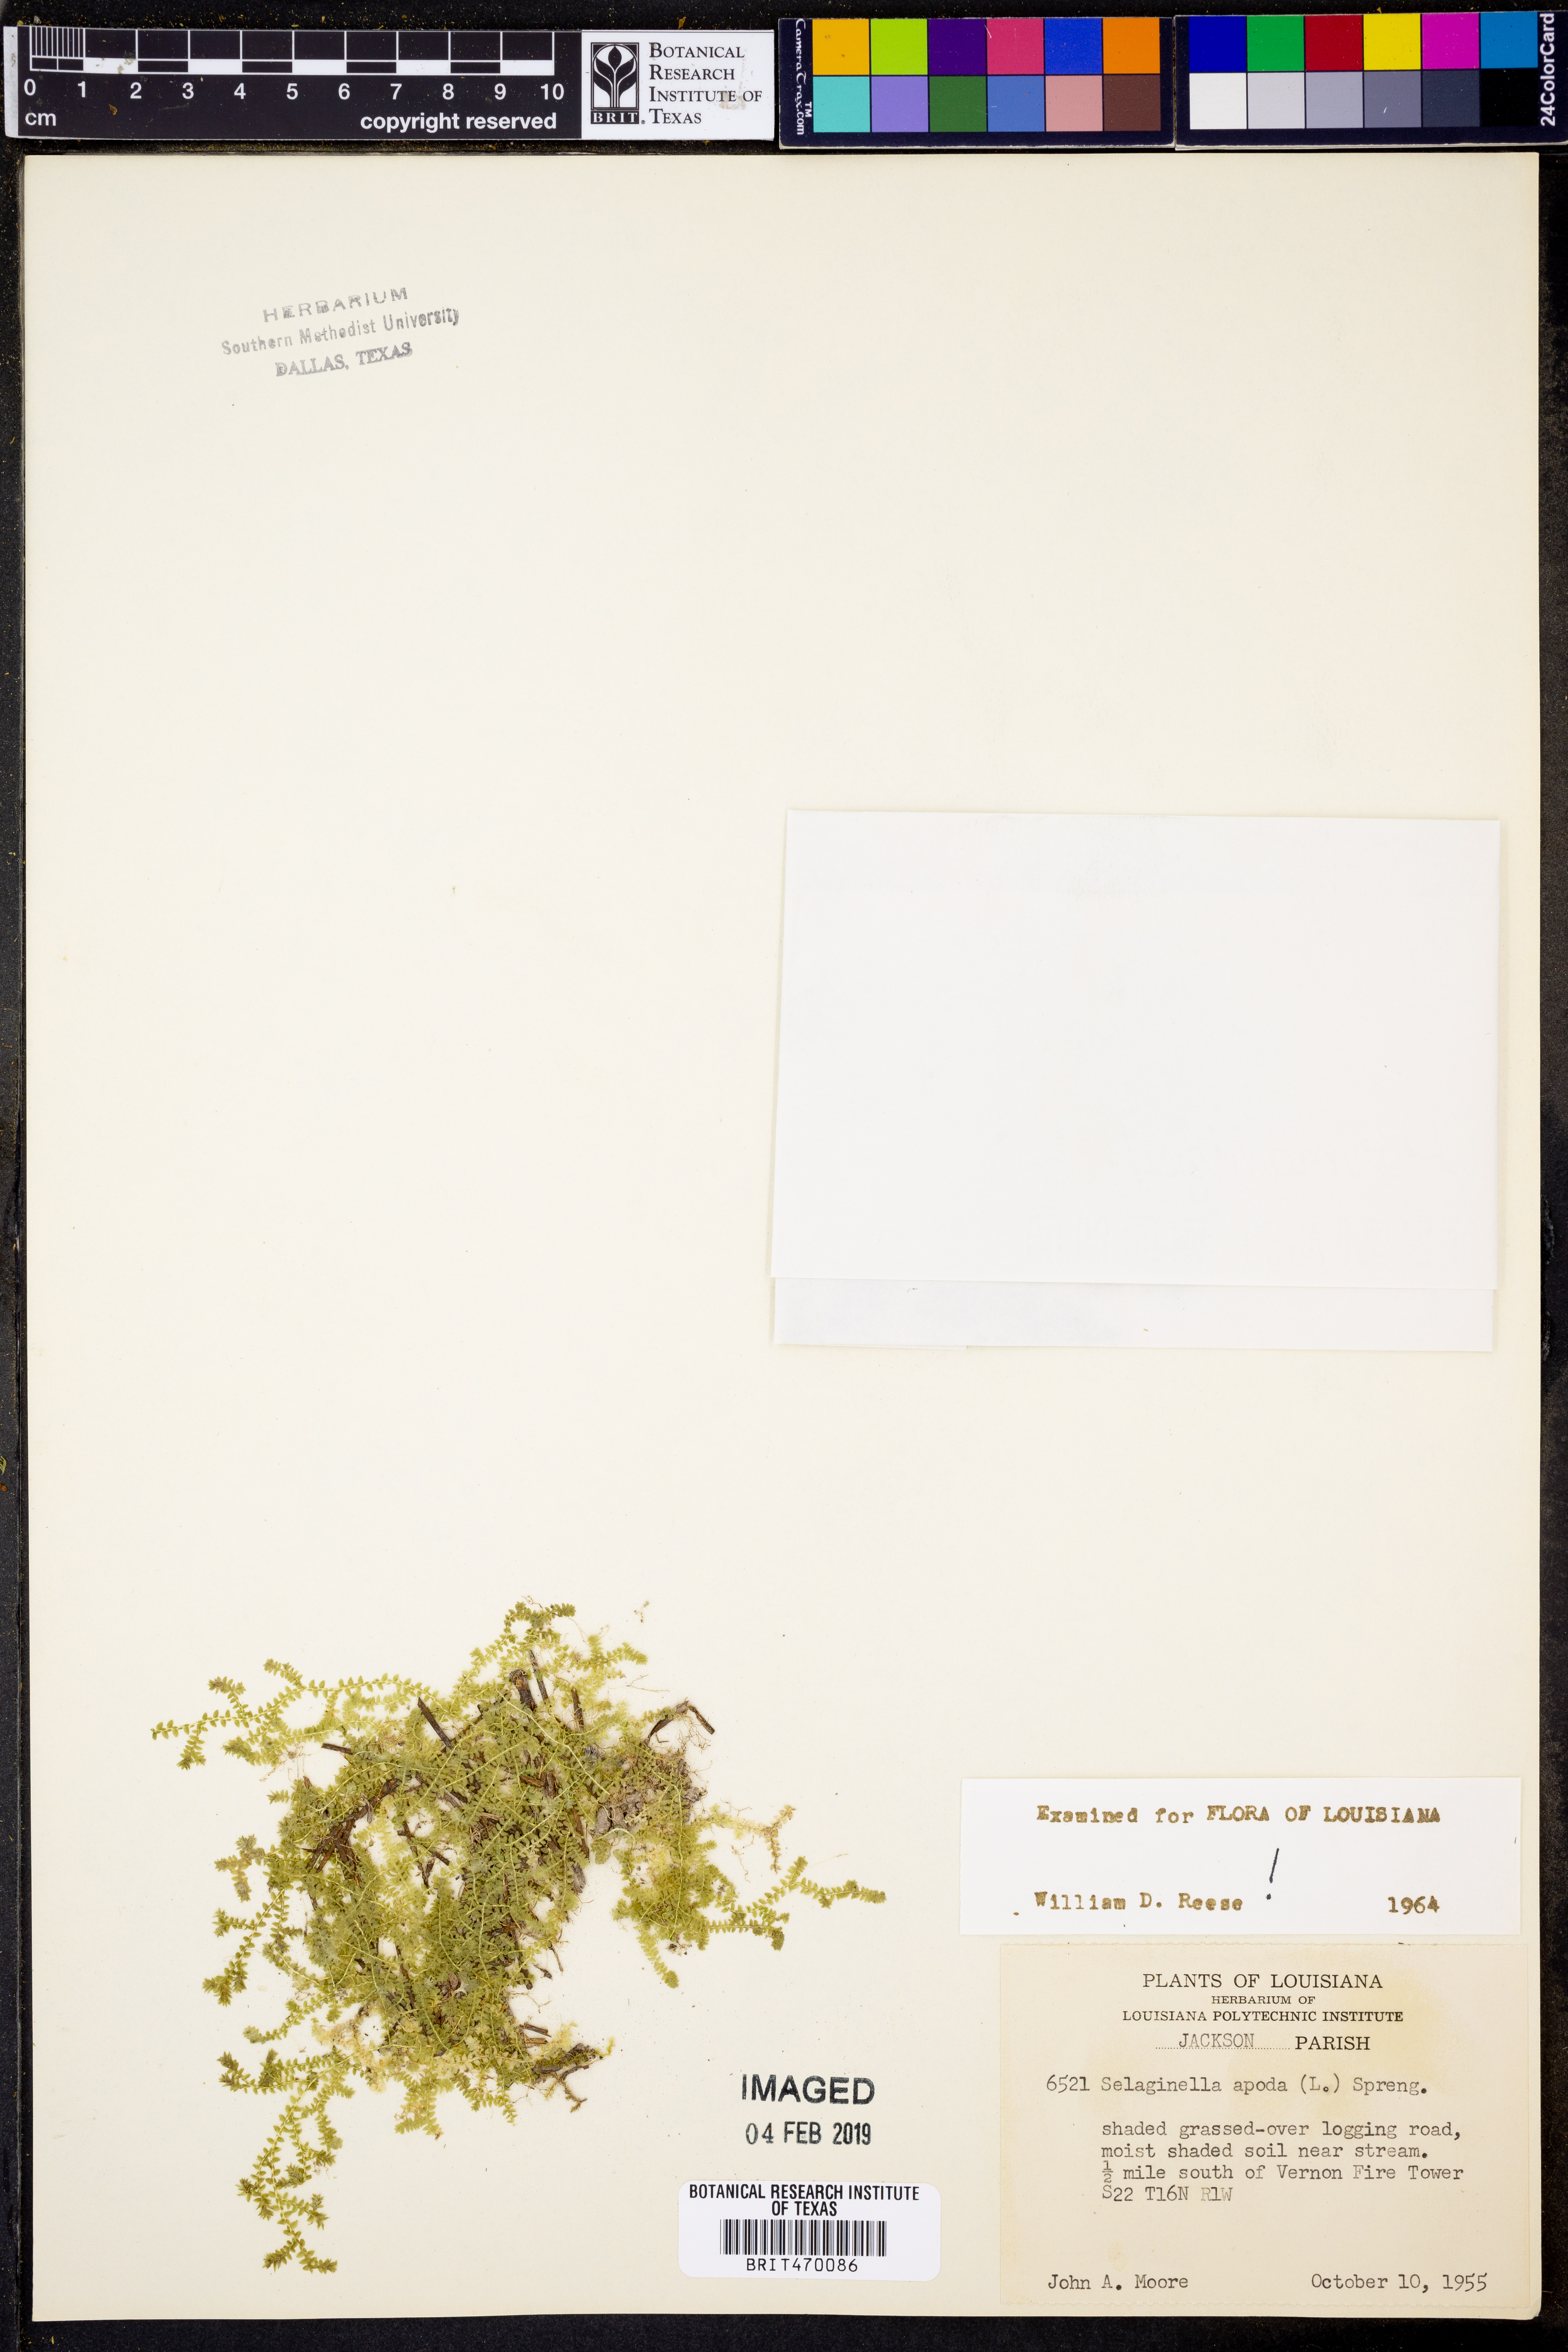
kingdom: Plantae
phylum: Tracheophyta
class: Lycopodiopsida
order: Selaginellales
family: Selaginellaceae
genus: Selaginella
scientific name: Selaginella apoda
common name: Creeping spikemoss
